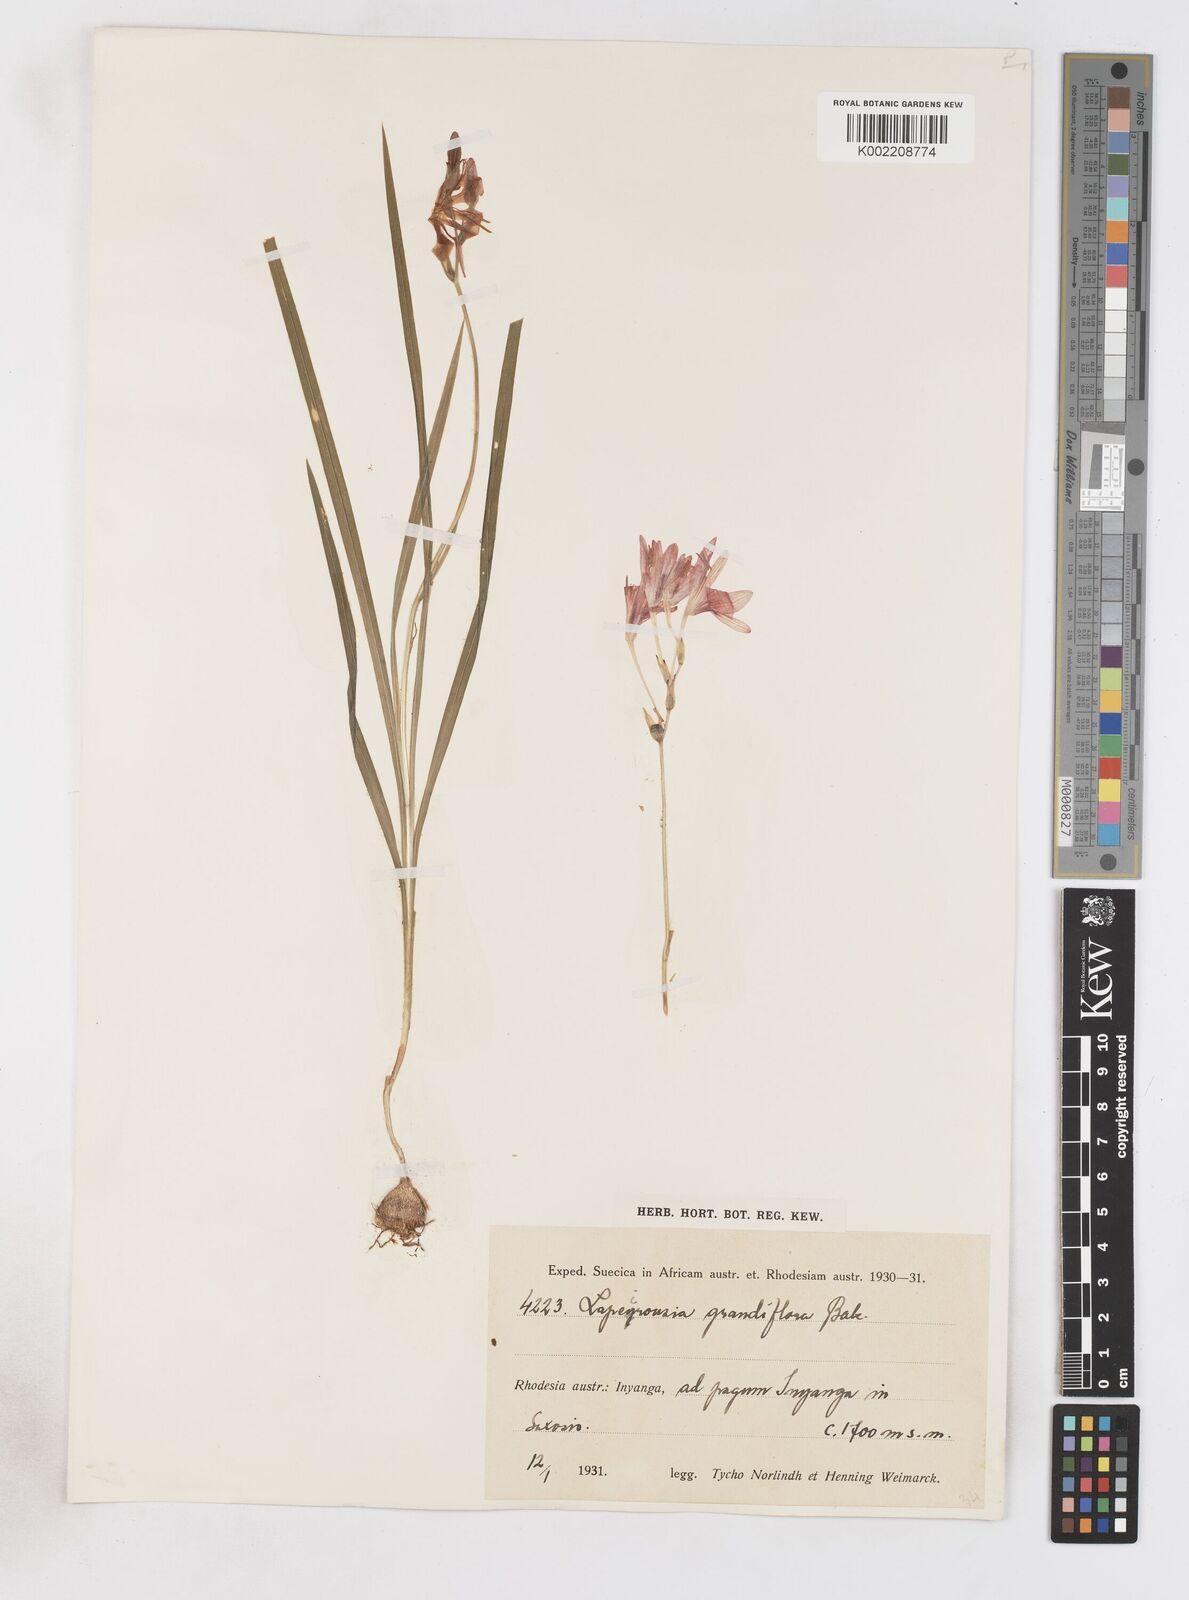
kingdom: Plantae
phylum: Tracheophyta
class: Liliopsida
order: Asparagales
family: Iridaceae
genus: Freesia
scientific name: Freesia grandiflora
